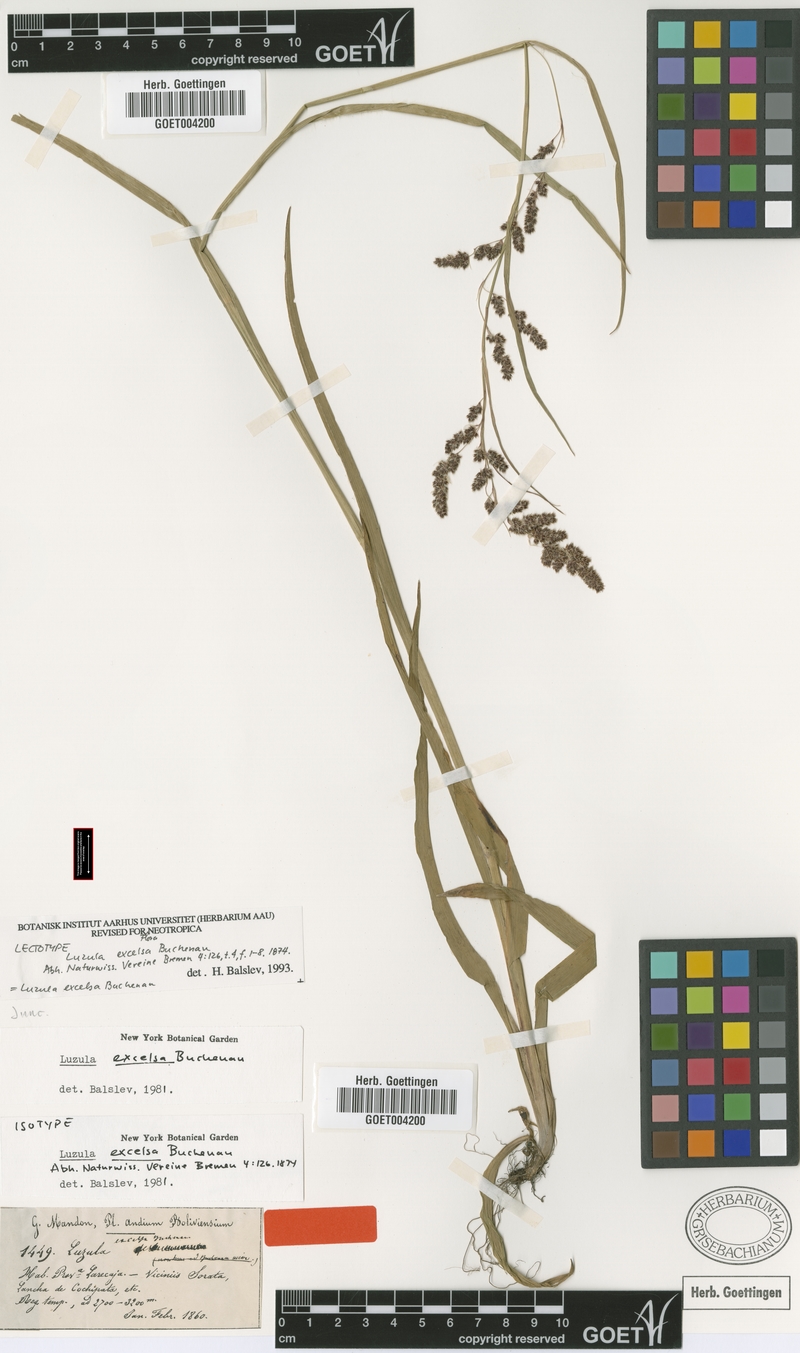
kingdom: Plantae
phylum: Tracheophyta
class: Liliopsida
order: Poales
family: Juncaceae
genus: Luzula
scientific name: Luzula excelsa
